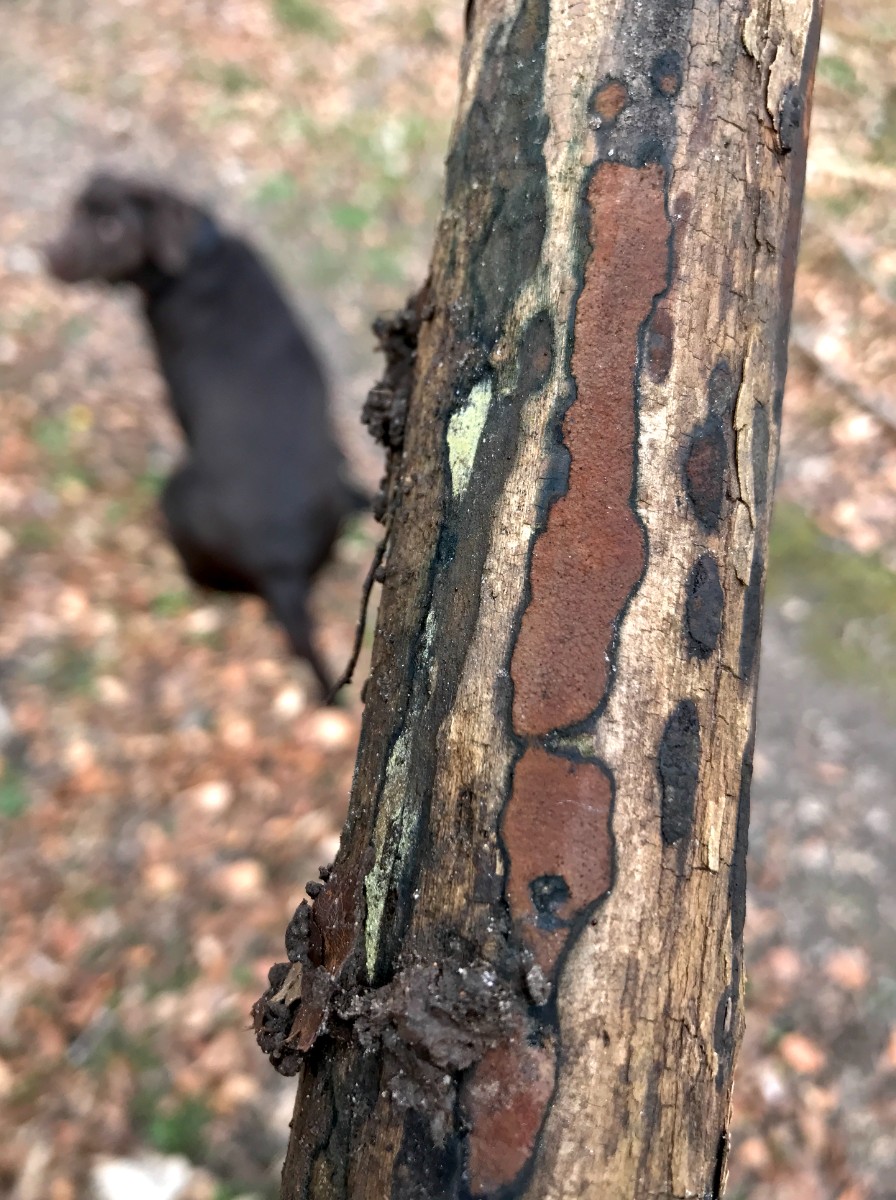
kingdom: Fungi
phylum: Ascomycota
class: Sordariomycetes
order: Xylariales
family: Hypoxylaceae
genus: Hypoxylon
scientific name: Hypoxylon petriniae
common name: nedsænket kulbær
